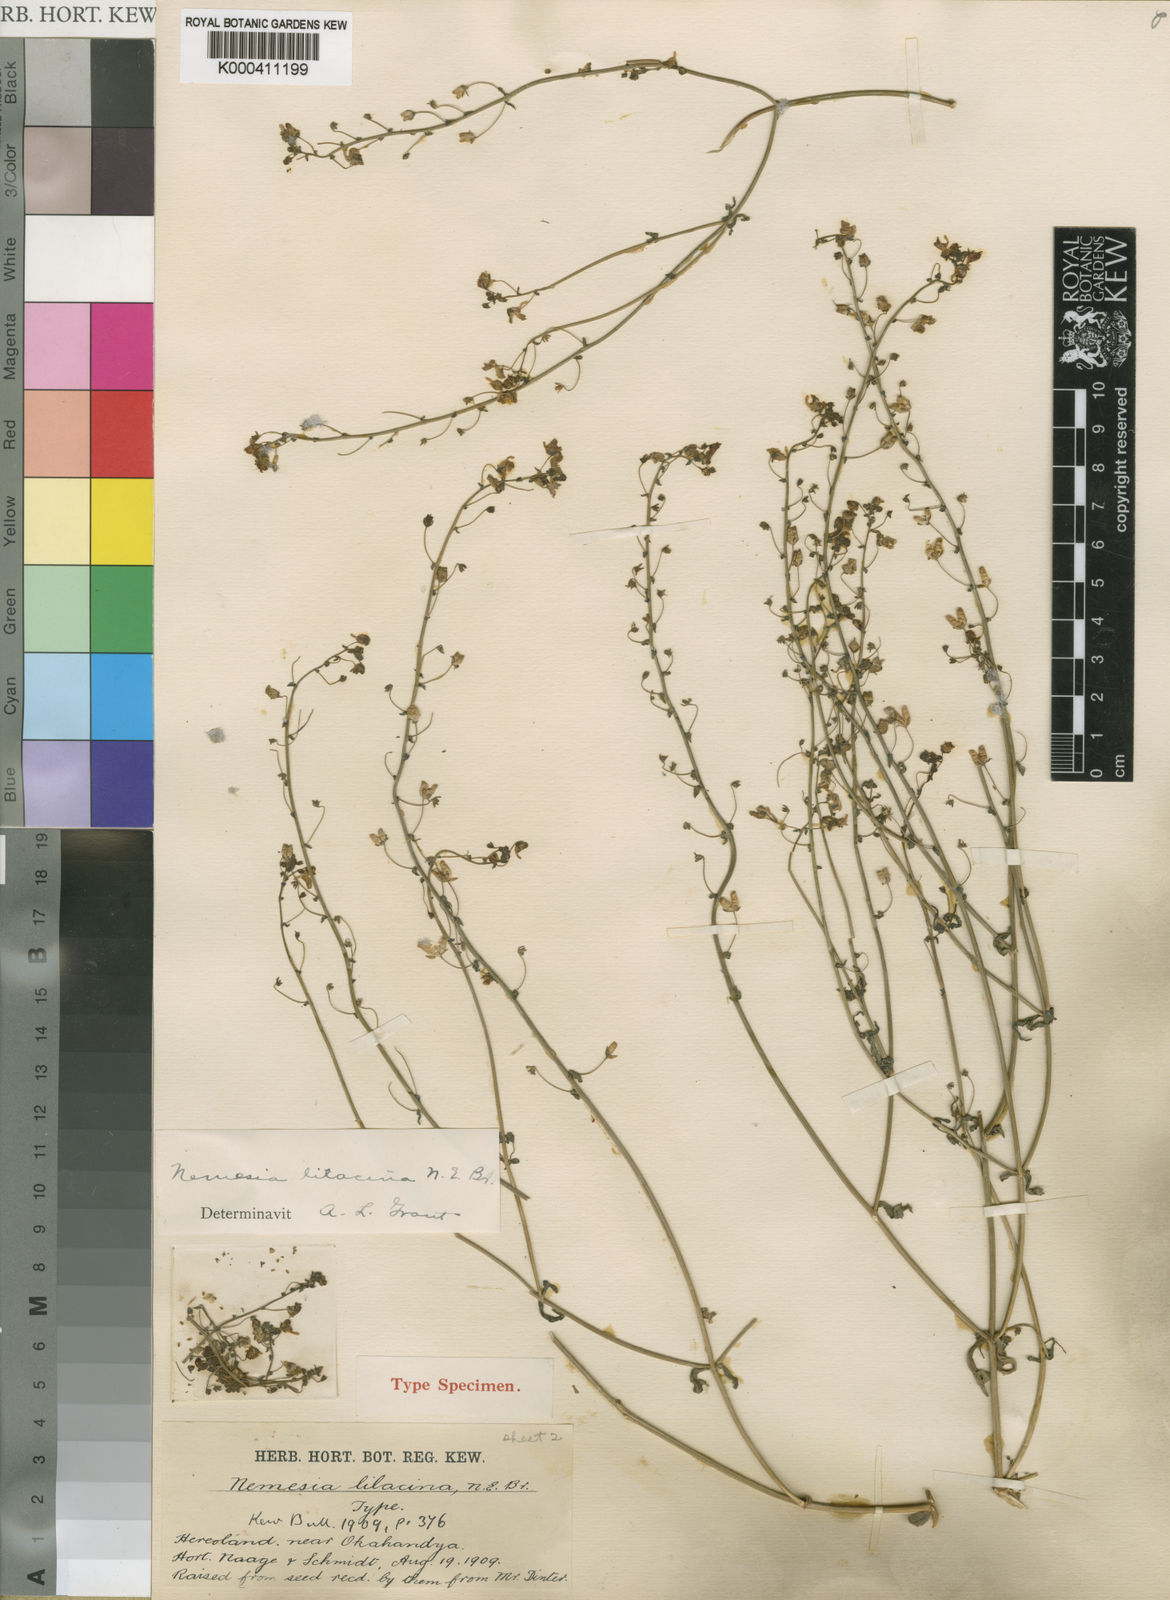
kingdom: Plantae
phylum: Tracheophyta
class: Magnoliopsida
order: Lamiales
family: Scrophulariaceae
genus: Nemesia
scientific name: Nemesia lilacina
